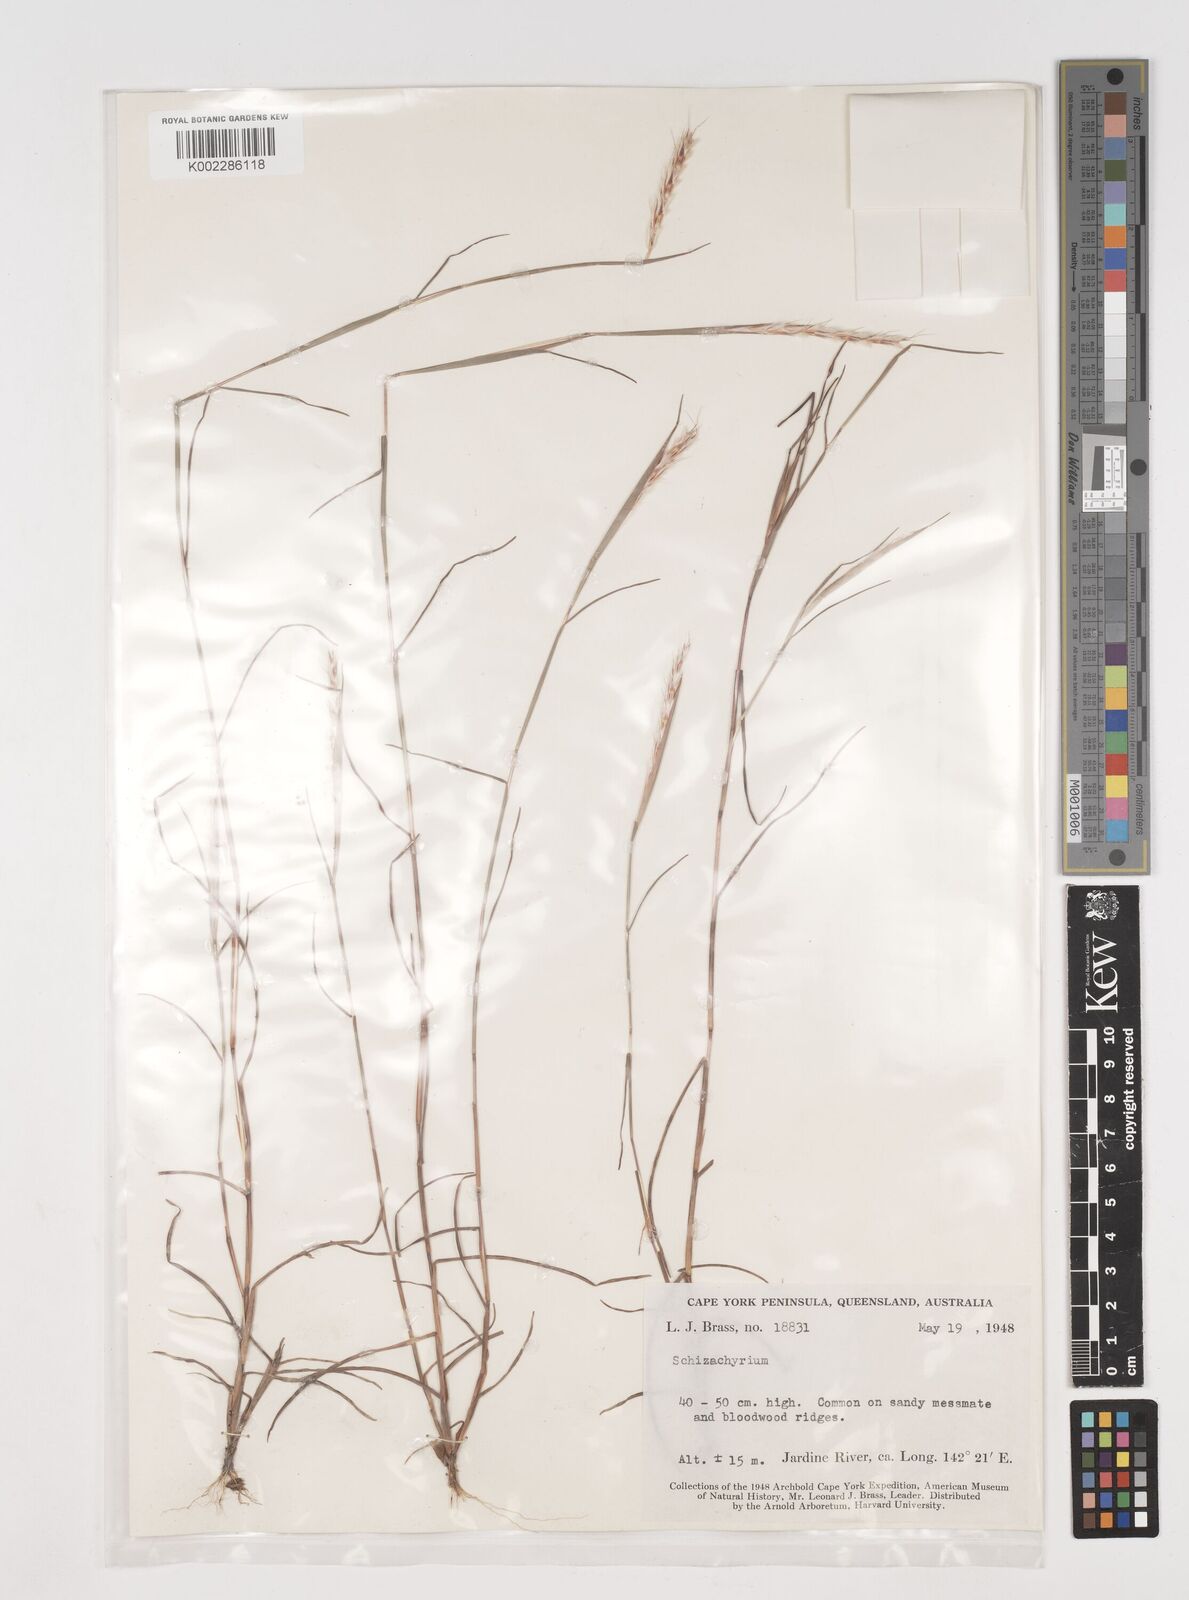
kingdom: Plantae
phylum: Tracheophyta
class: Liliopsida
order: Poales
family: Poaceae
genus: Schizachyrium
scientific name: Schizachyrium fragile
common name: Red spathe grass
